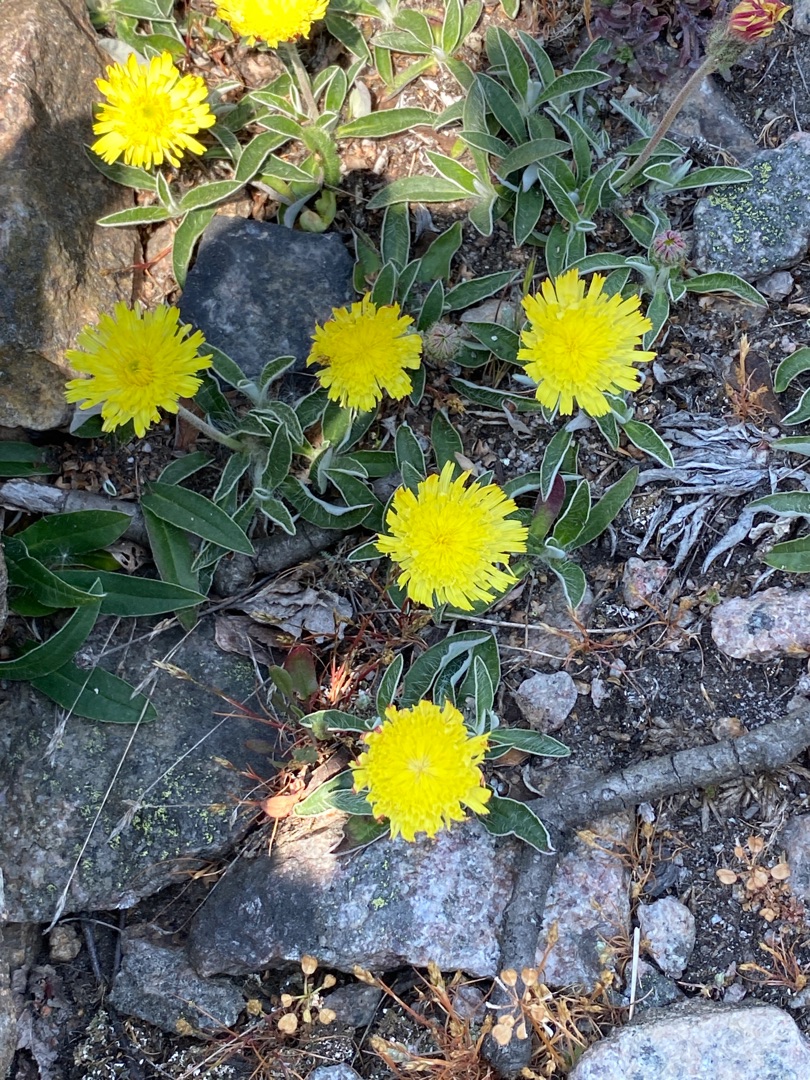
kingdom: Plantae
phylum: Tracheophyta
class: Magnoliopsida
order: Asterales
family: Asteraceae
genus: Pilosella
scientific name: Pilosella officinarum
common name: Håret høgeurt
